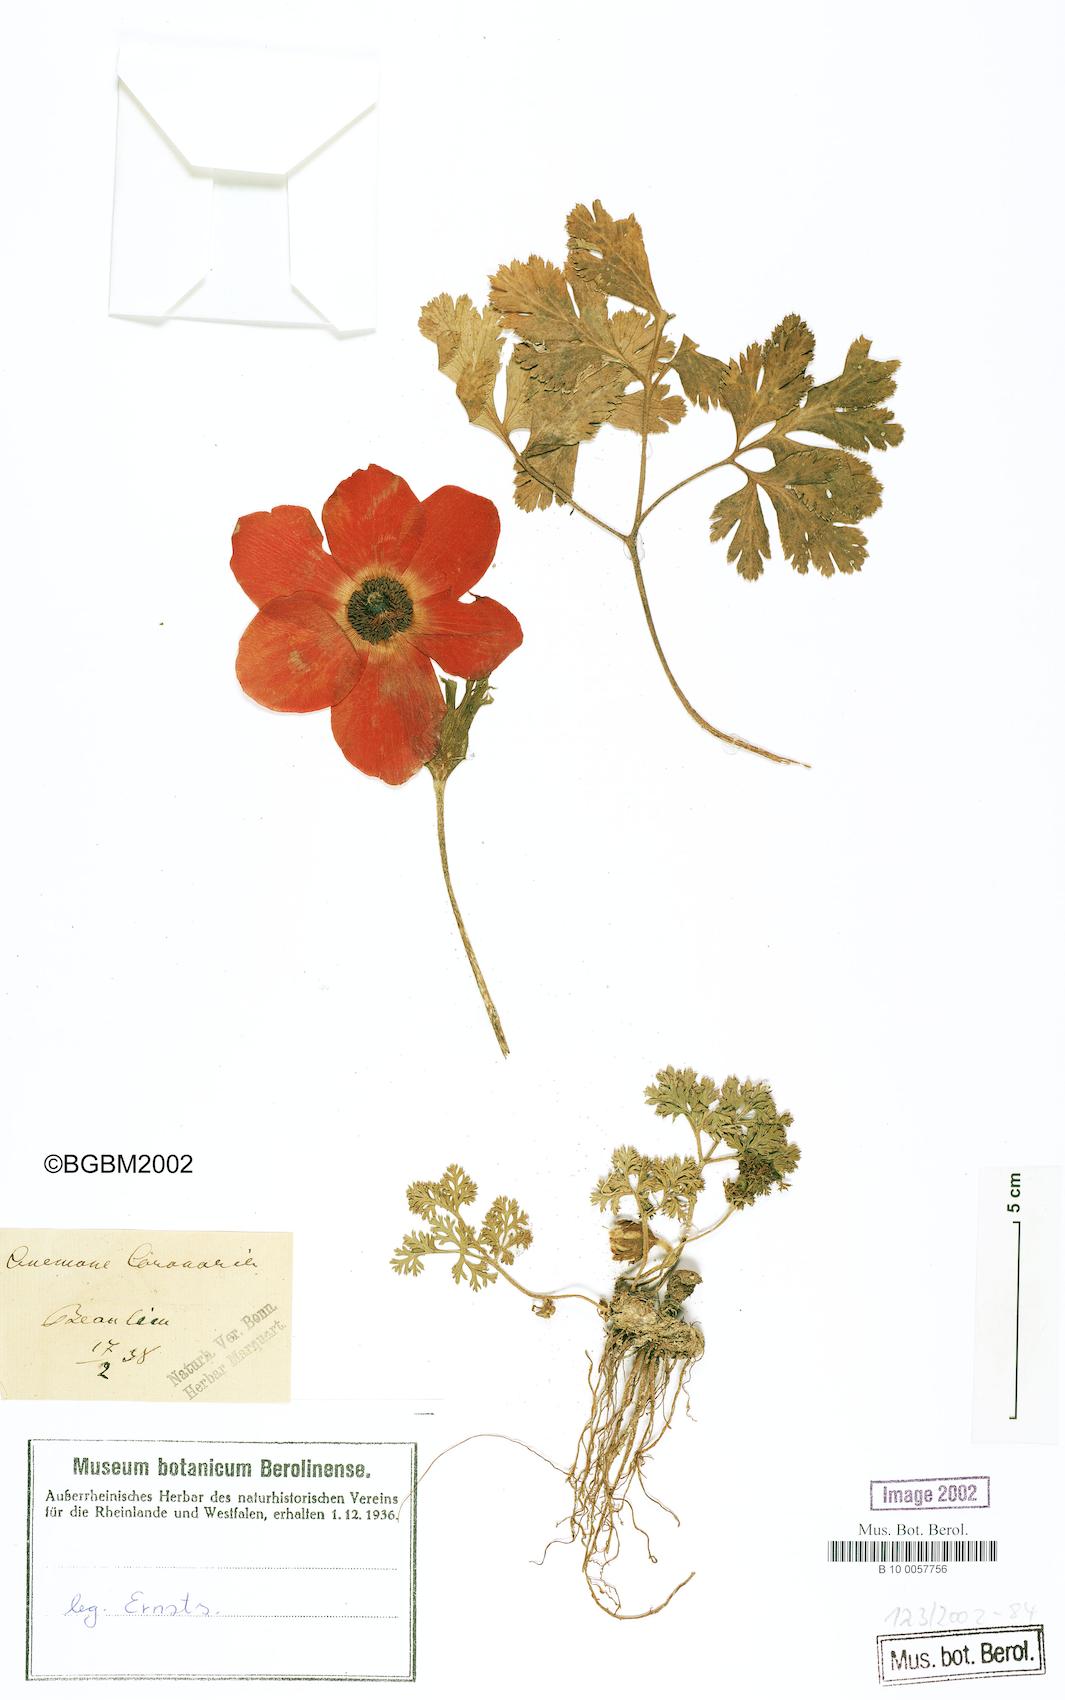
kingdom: Plantae
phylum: Tracheophyta
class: Magnoliopsida
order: Ranunculales
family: Ranunculaceae
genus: Anemone
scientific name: Anemone coronaria
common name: Poppy anemone
